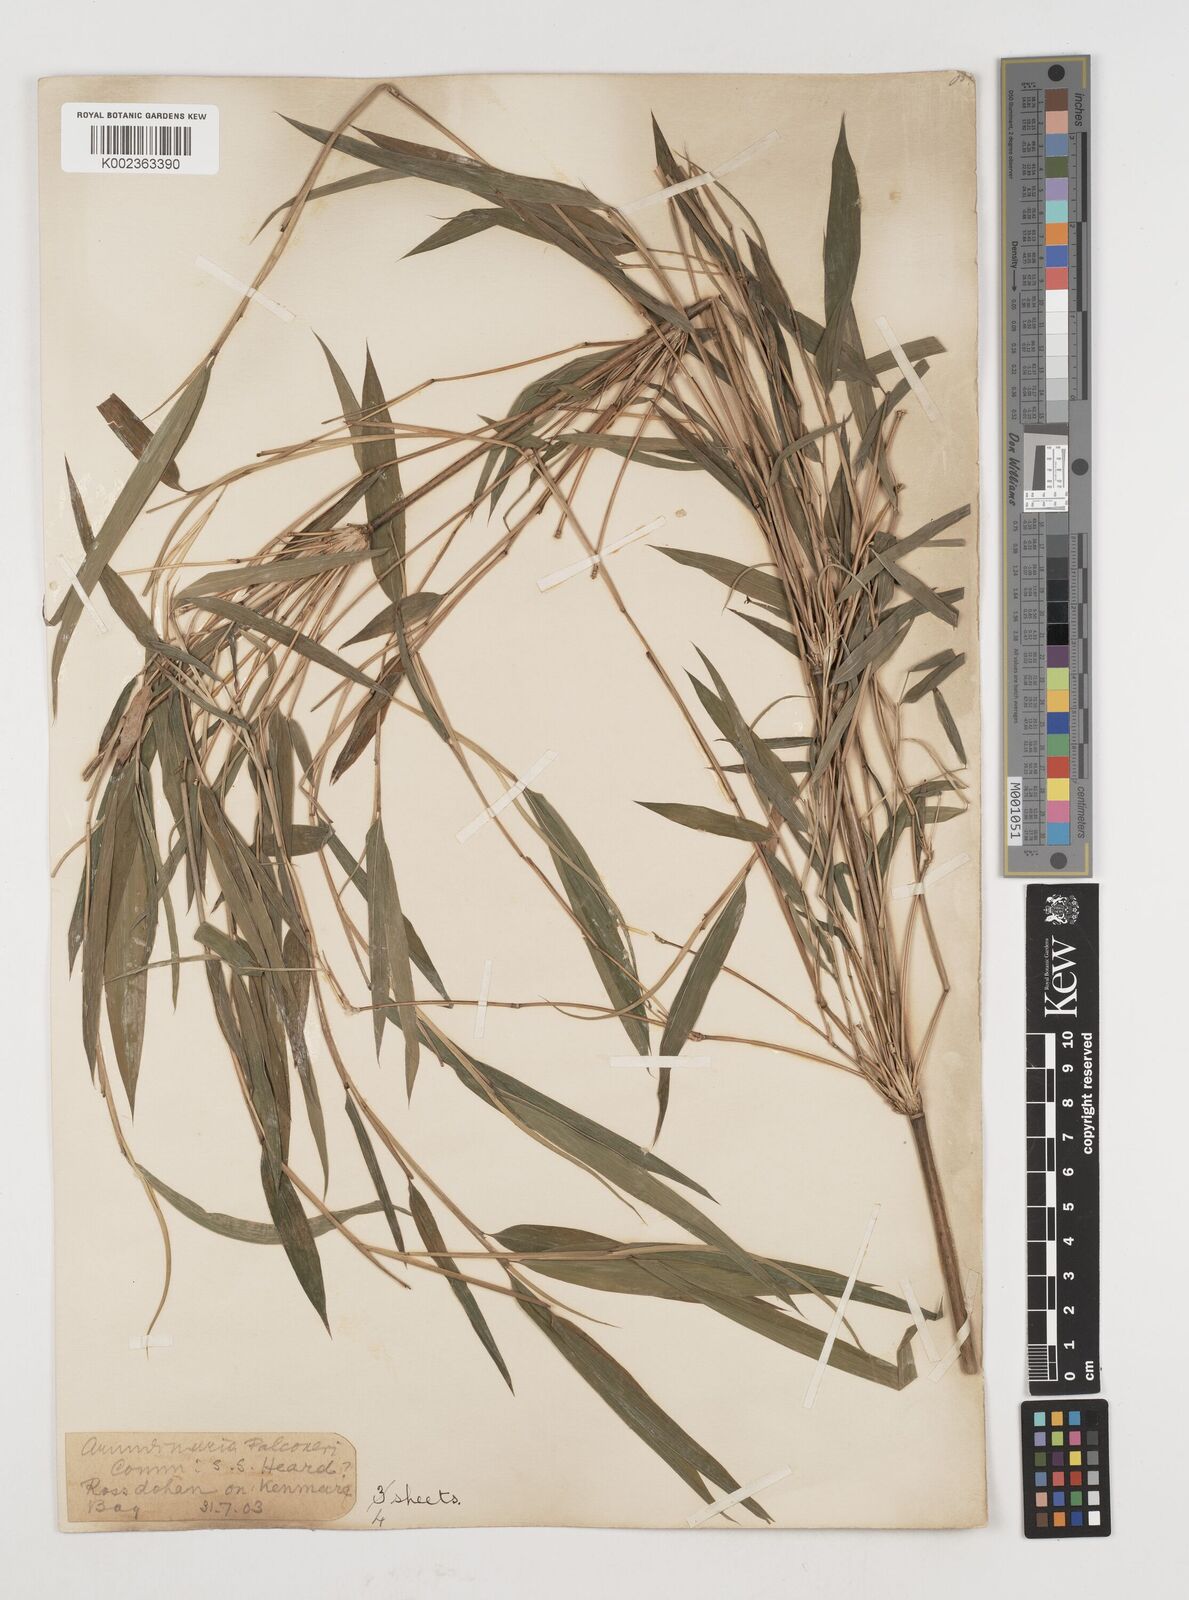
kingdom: Plantae
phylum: Tracheophyta
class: Liliopsida
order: Poales
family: Poaceae
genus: Himalayacalamus
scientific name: Himalayacalamus
